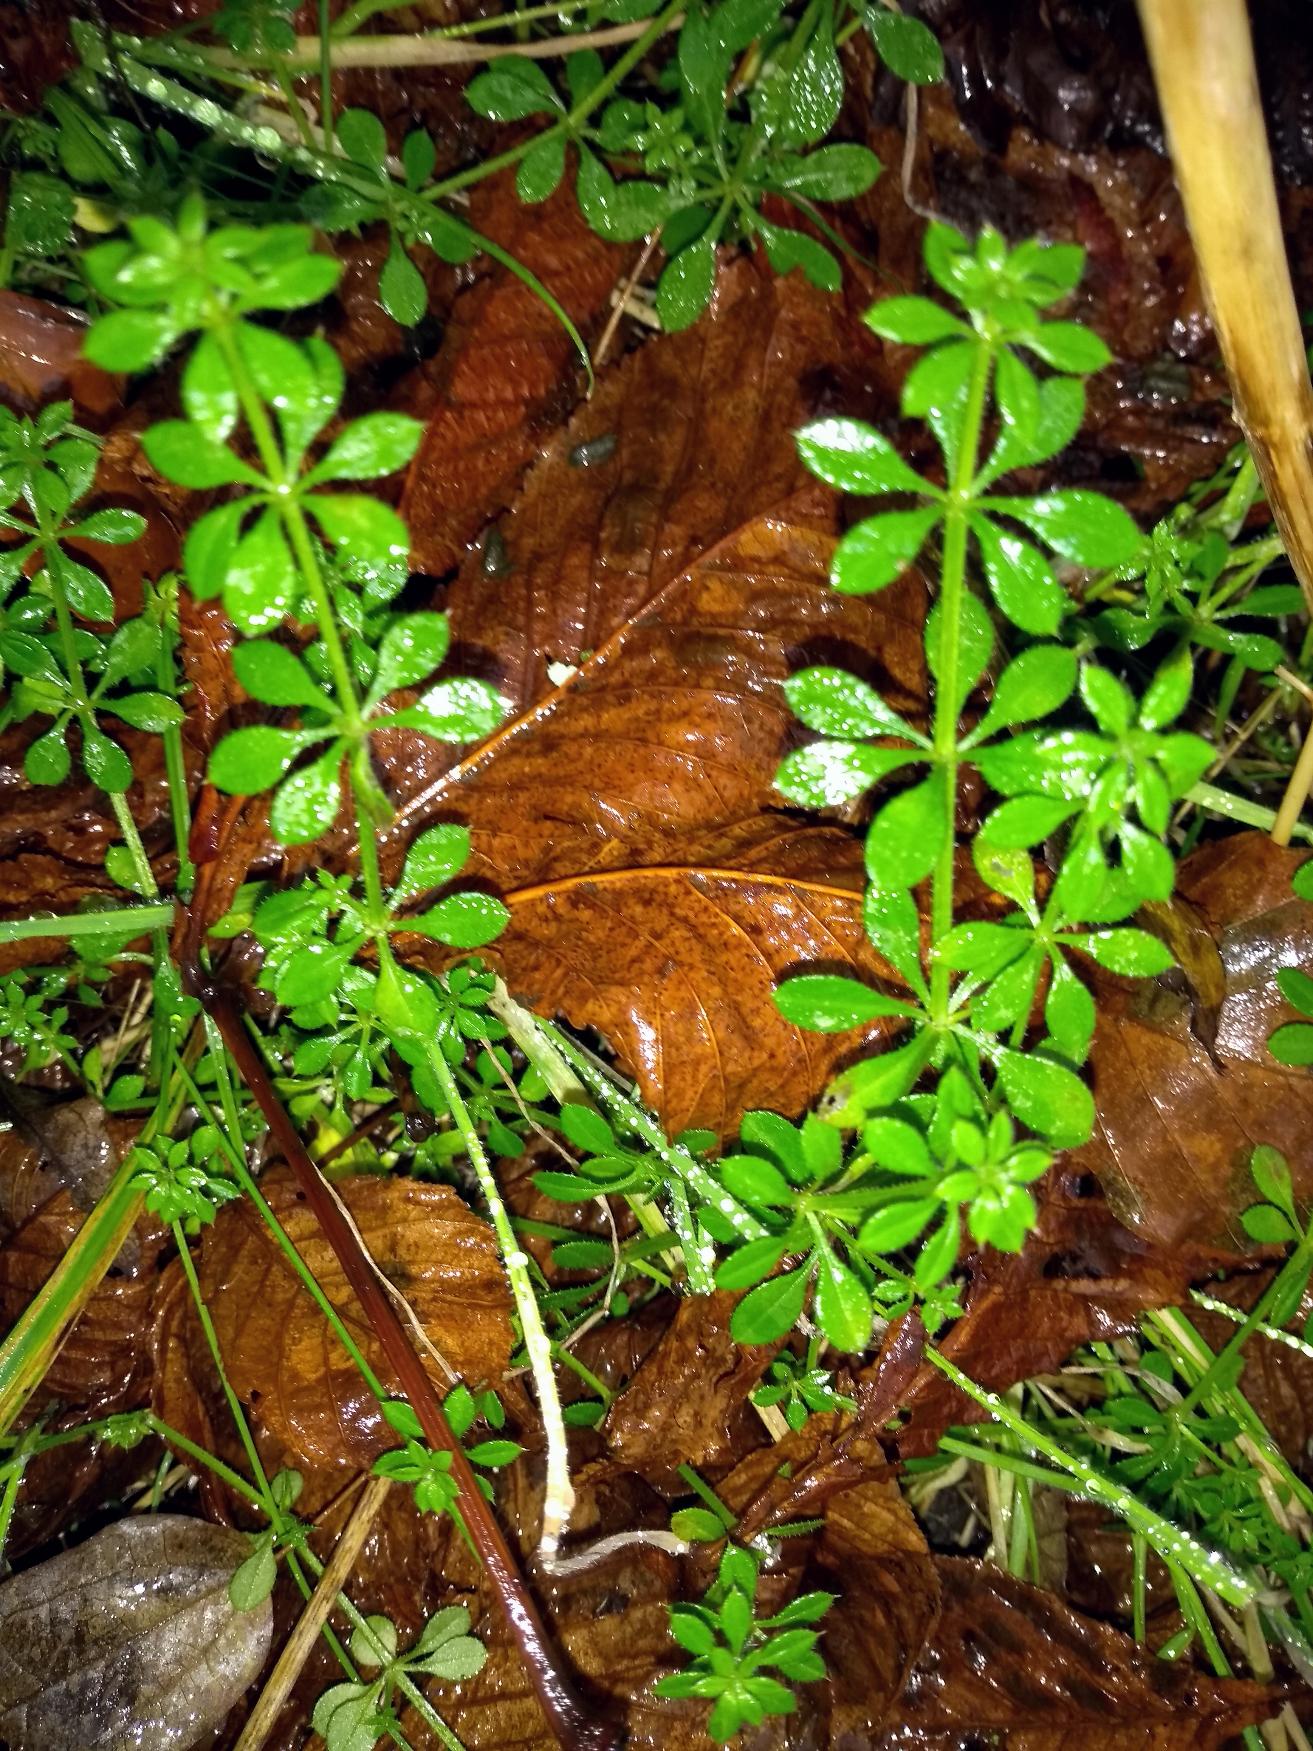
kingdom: Plantae
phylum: Tracheophyta
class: Magnoliopsida
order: Gentianales
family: Rubiaceae
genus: Galium
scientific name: Galium aparine
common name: Burre-snerre
